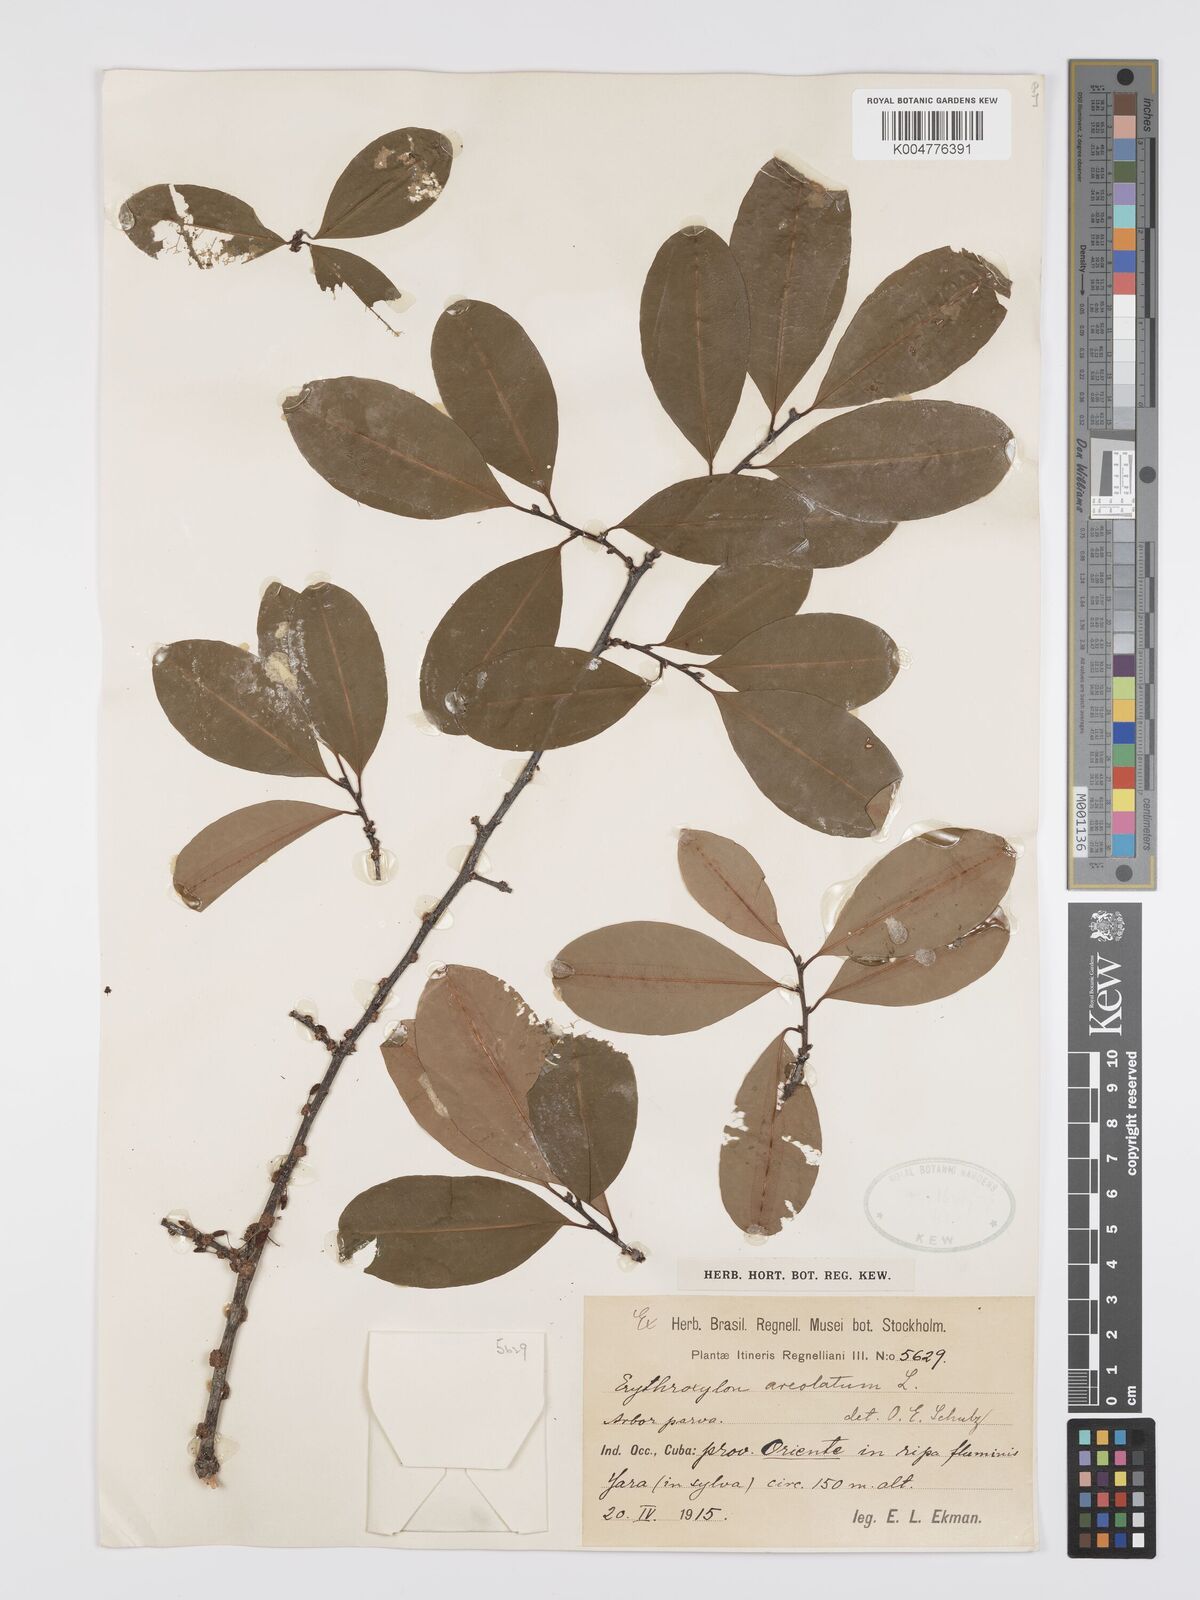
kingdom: Plantae
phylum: Tracheophyta
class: Magnoliopsida
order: Malpighiales
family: Erythroxylaceae
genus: Erythroxylum
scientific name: Erythroxylum areolatum
